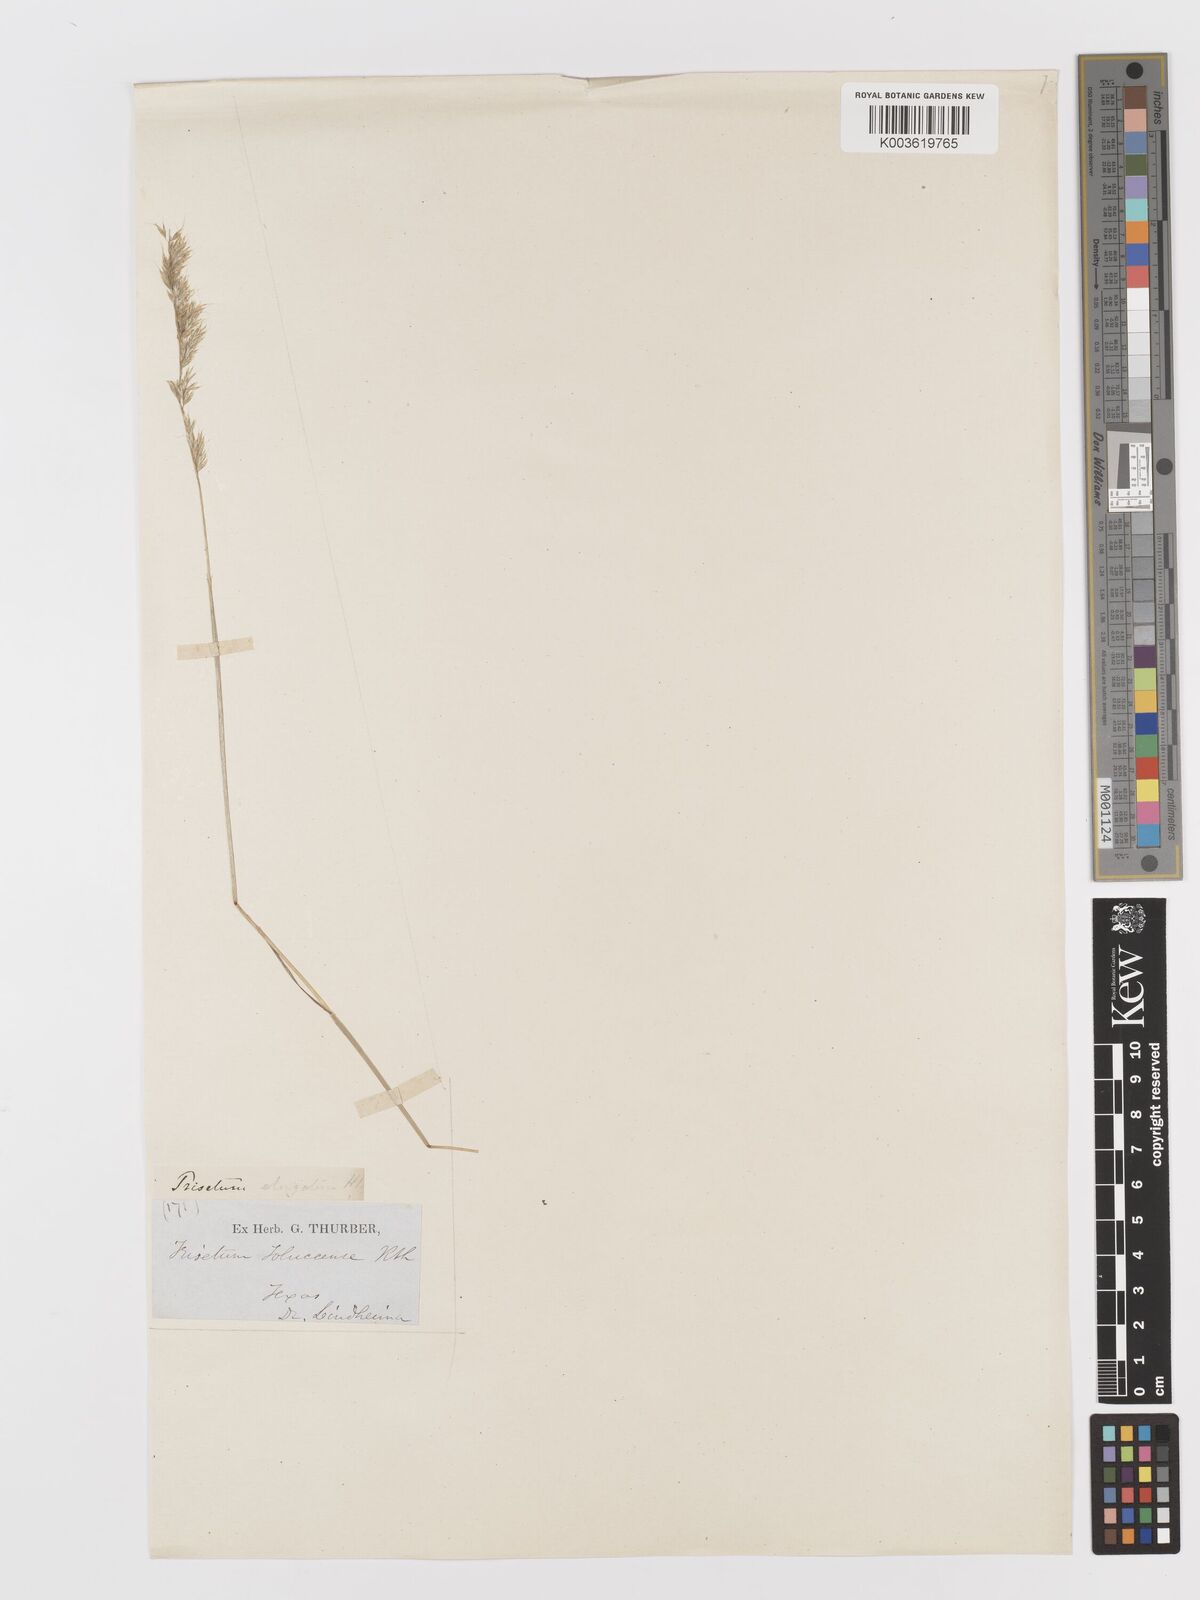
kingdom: Plantae
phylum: Tracheophyta
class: Liliopsida
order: Poales
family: Poaceae
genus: Sphenopholis
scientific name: Sphenopholis interrupta
